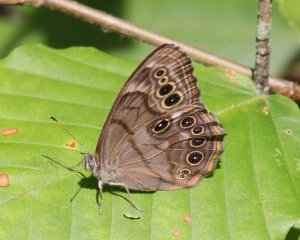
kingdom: Animalia
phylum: Arthropoda
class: Insecta
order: Lepidoptera
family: Nymphalidae
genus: Lethe
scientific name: Lethe anthedon
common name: Northern Pearly-Eye
